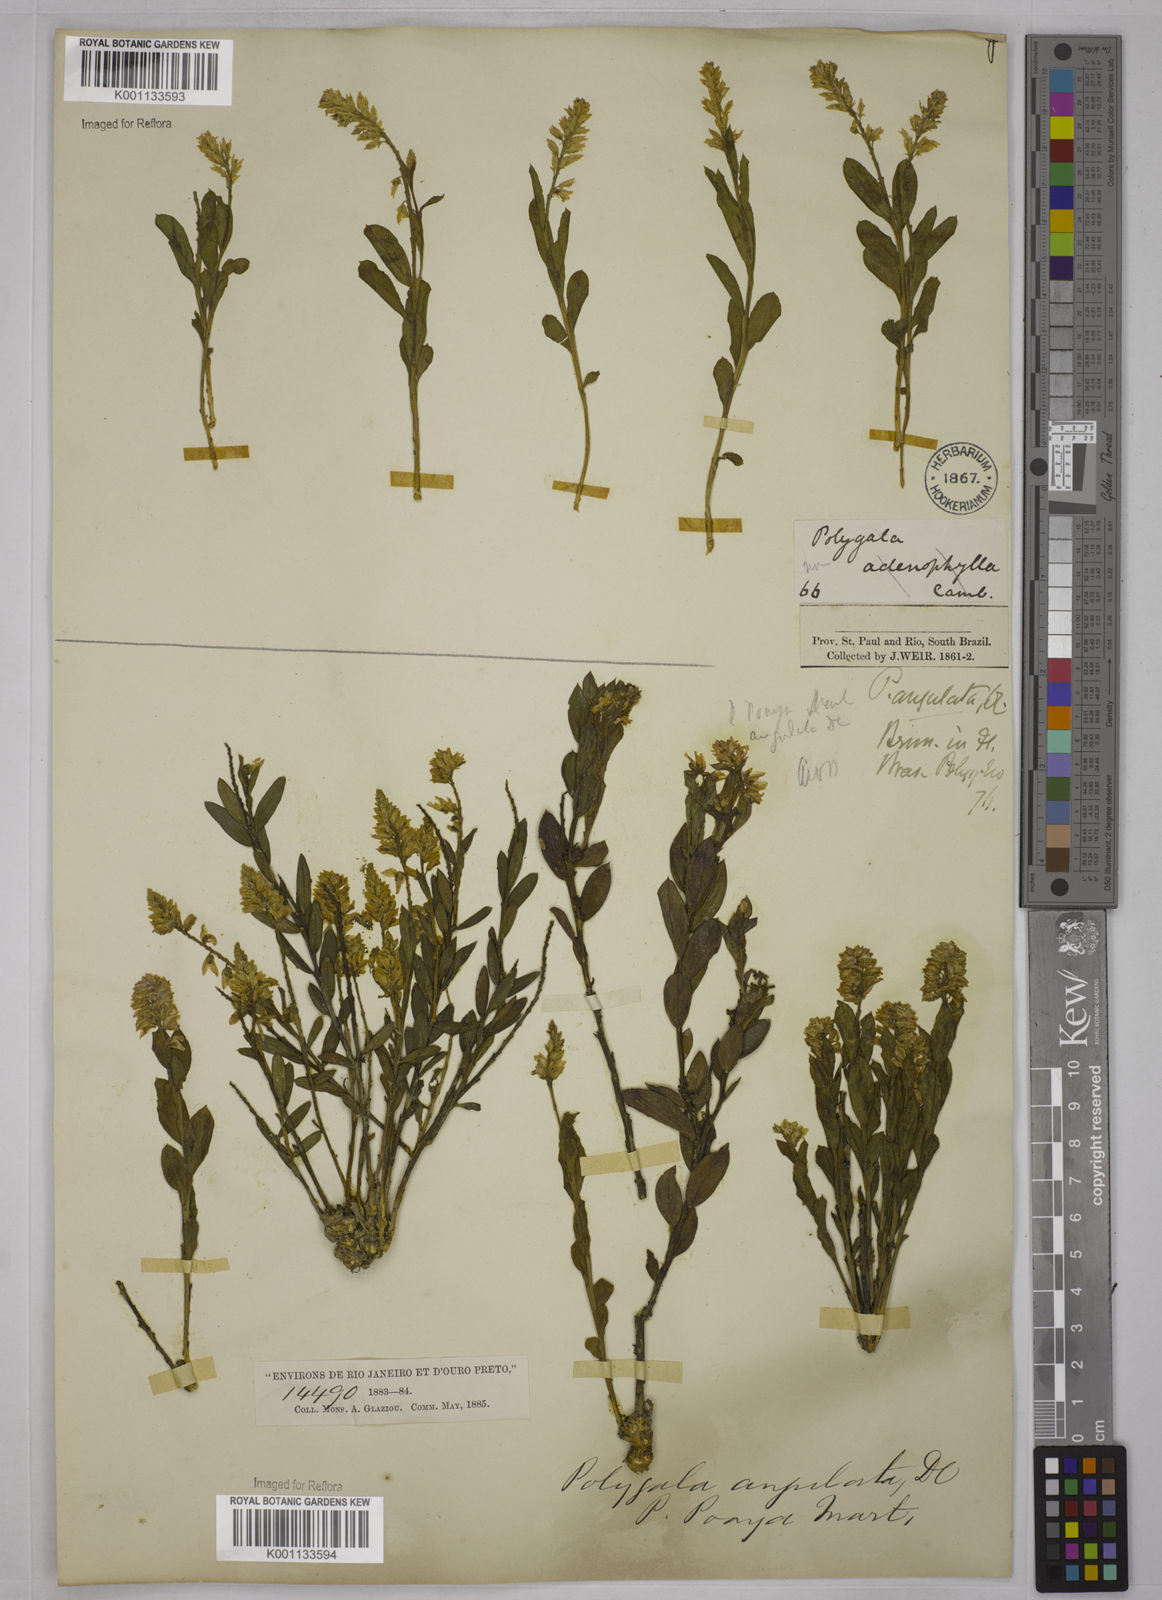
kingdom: Plantae
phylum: Tracheophyta
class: Magnoliopsida
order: Fabales
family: Polygalaceae
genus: Polygala
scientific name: Polygala poaya
